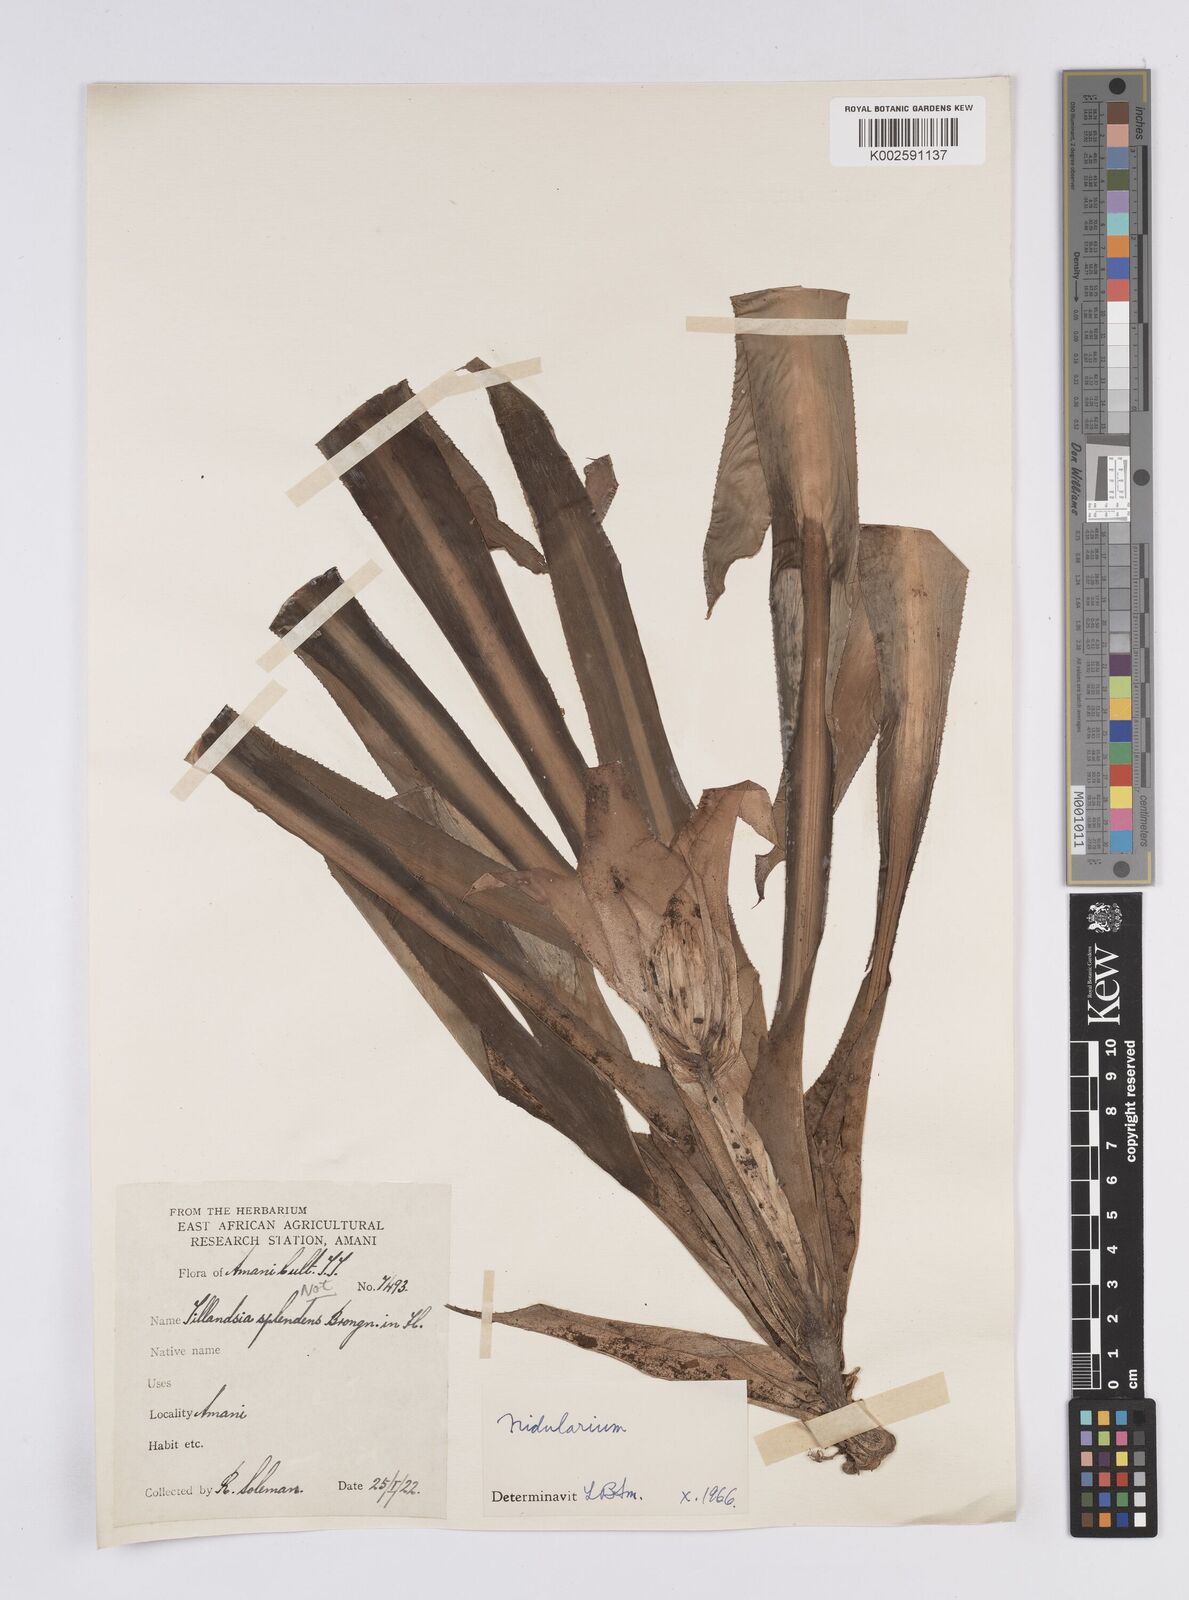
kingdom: Plantae
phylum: Tracheophyta
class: Liliopsida
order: Poales
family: Bromeliaceae
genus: Nidularium
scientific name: Nidularium
